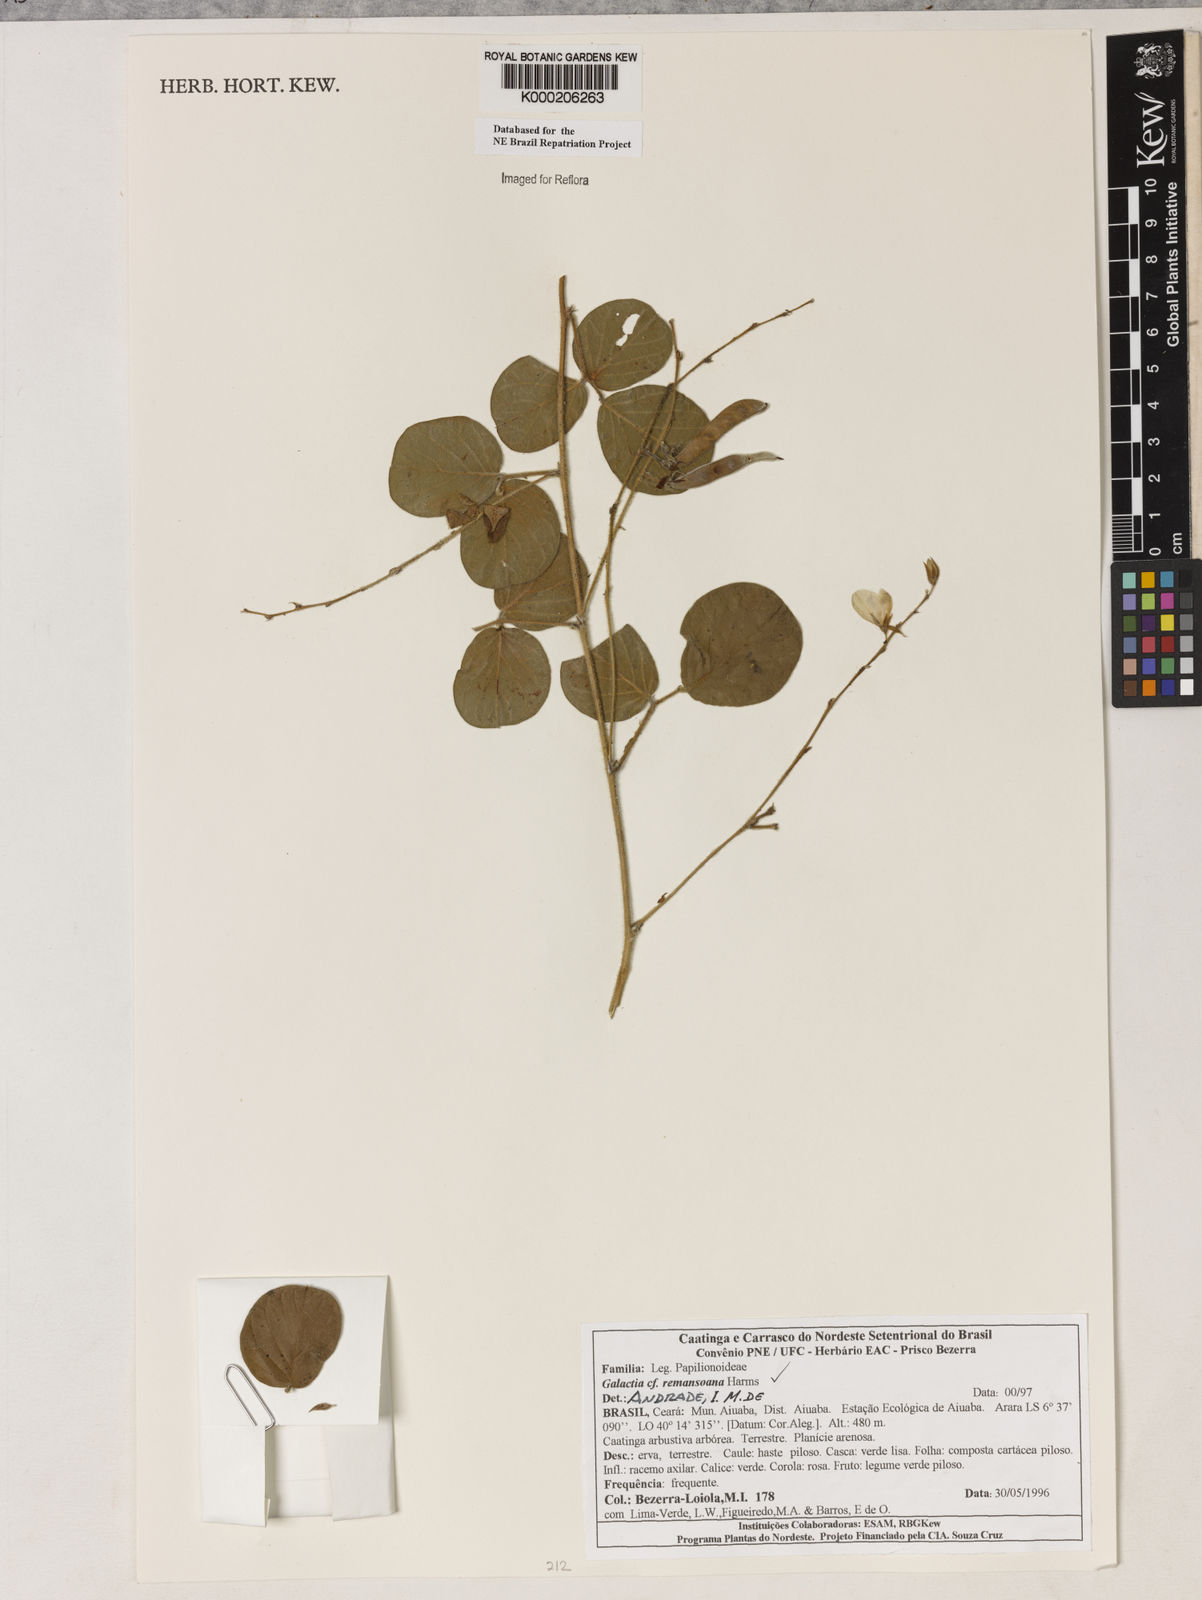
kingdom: Plantae
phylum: Tracheophyta
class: Magnoliopsida
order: Fabales
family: Fabaceae
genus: Galactia
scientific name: Galactia remansoana
